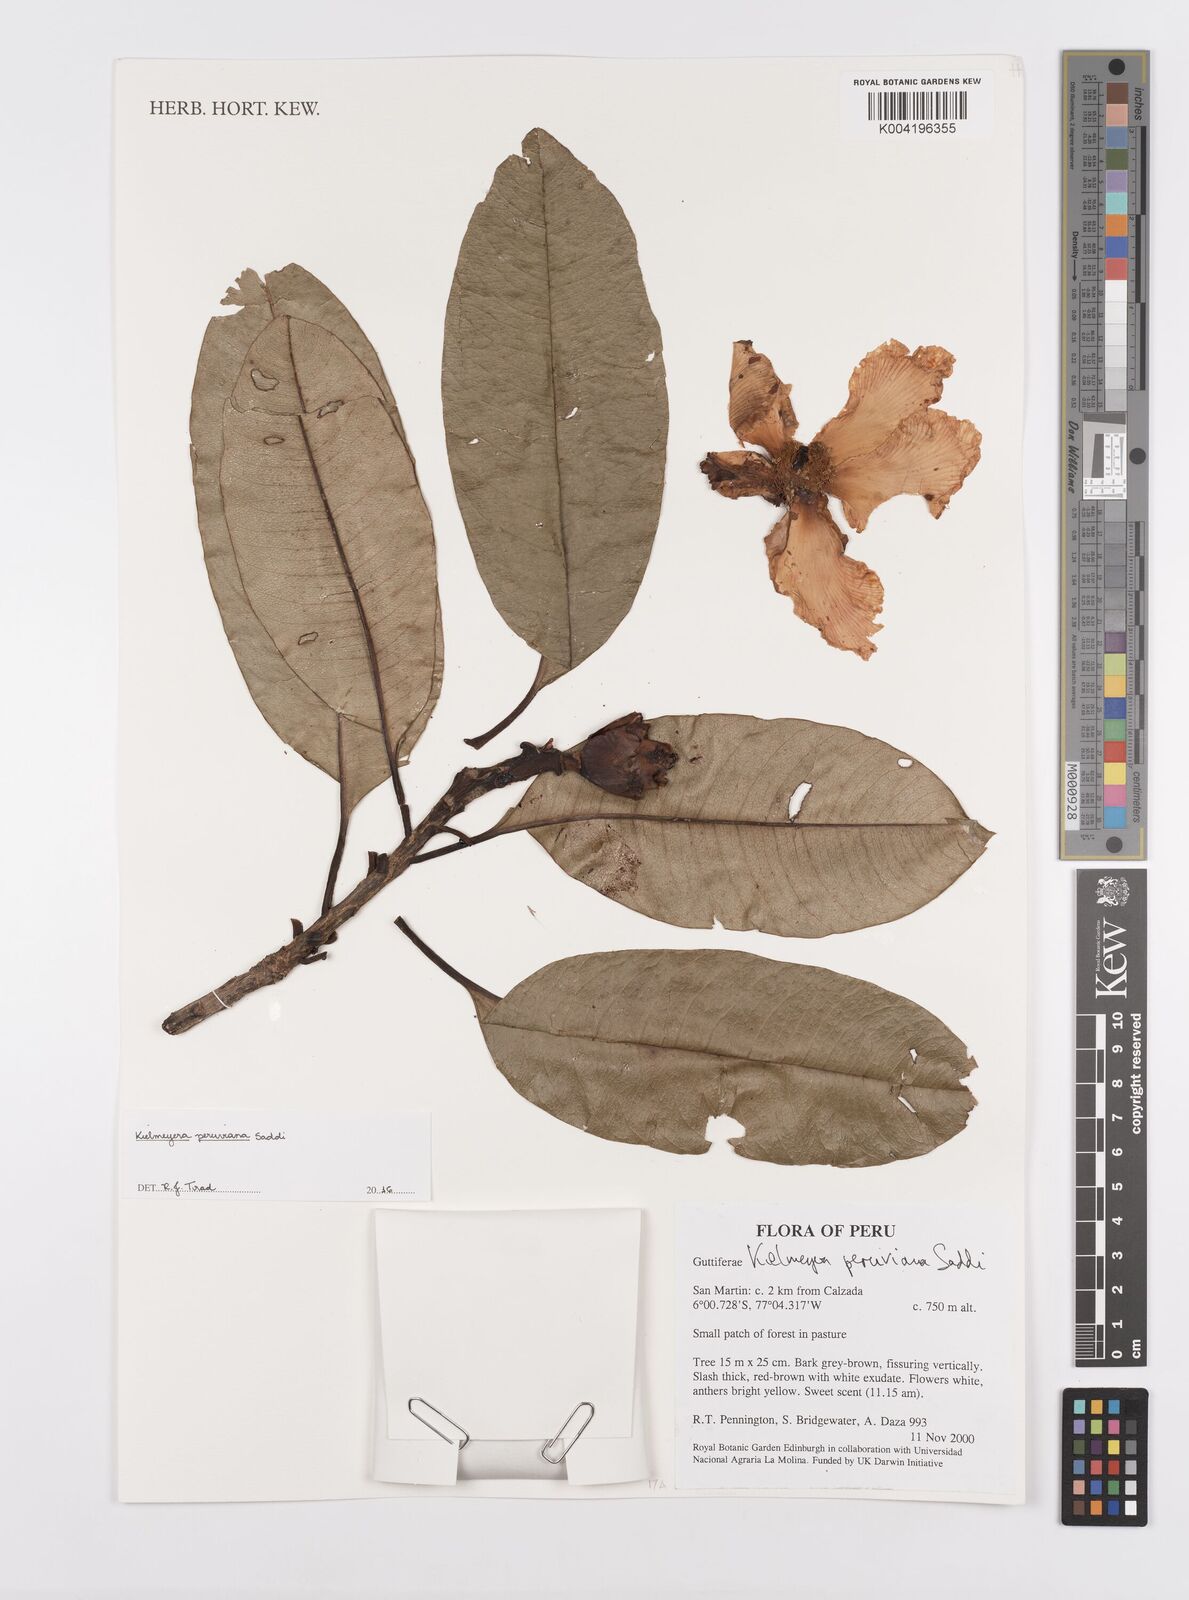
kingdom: Plantae
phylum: Tracheophyta
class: Magnoliopsida
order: Malpighiales
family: Calophyllaceae
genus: Kielmeyera
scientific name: Kielmeyera peruviana
